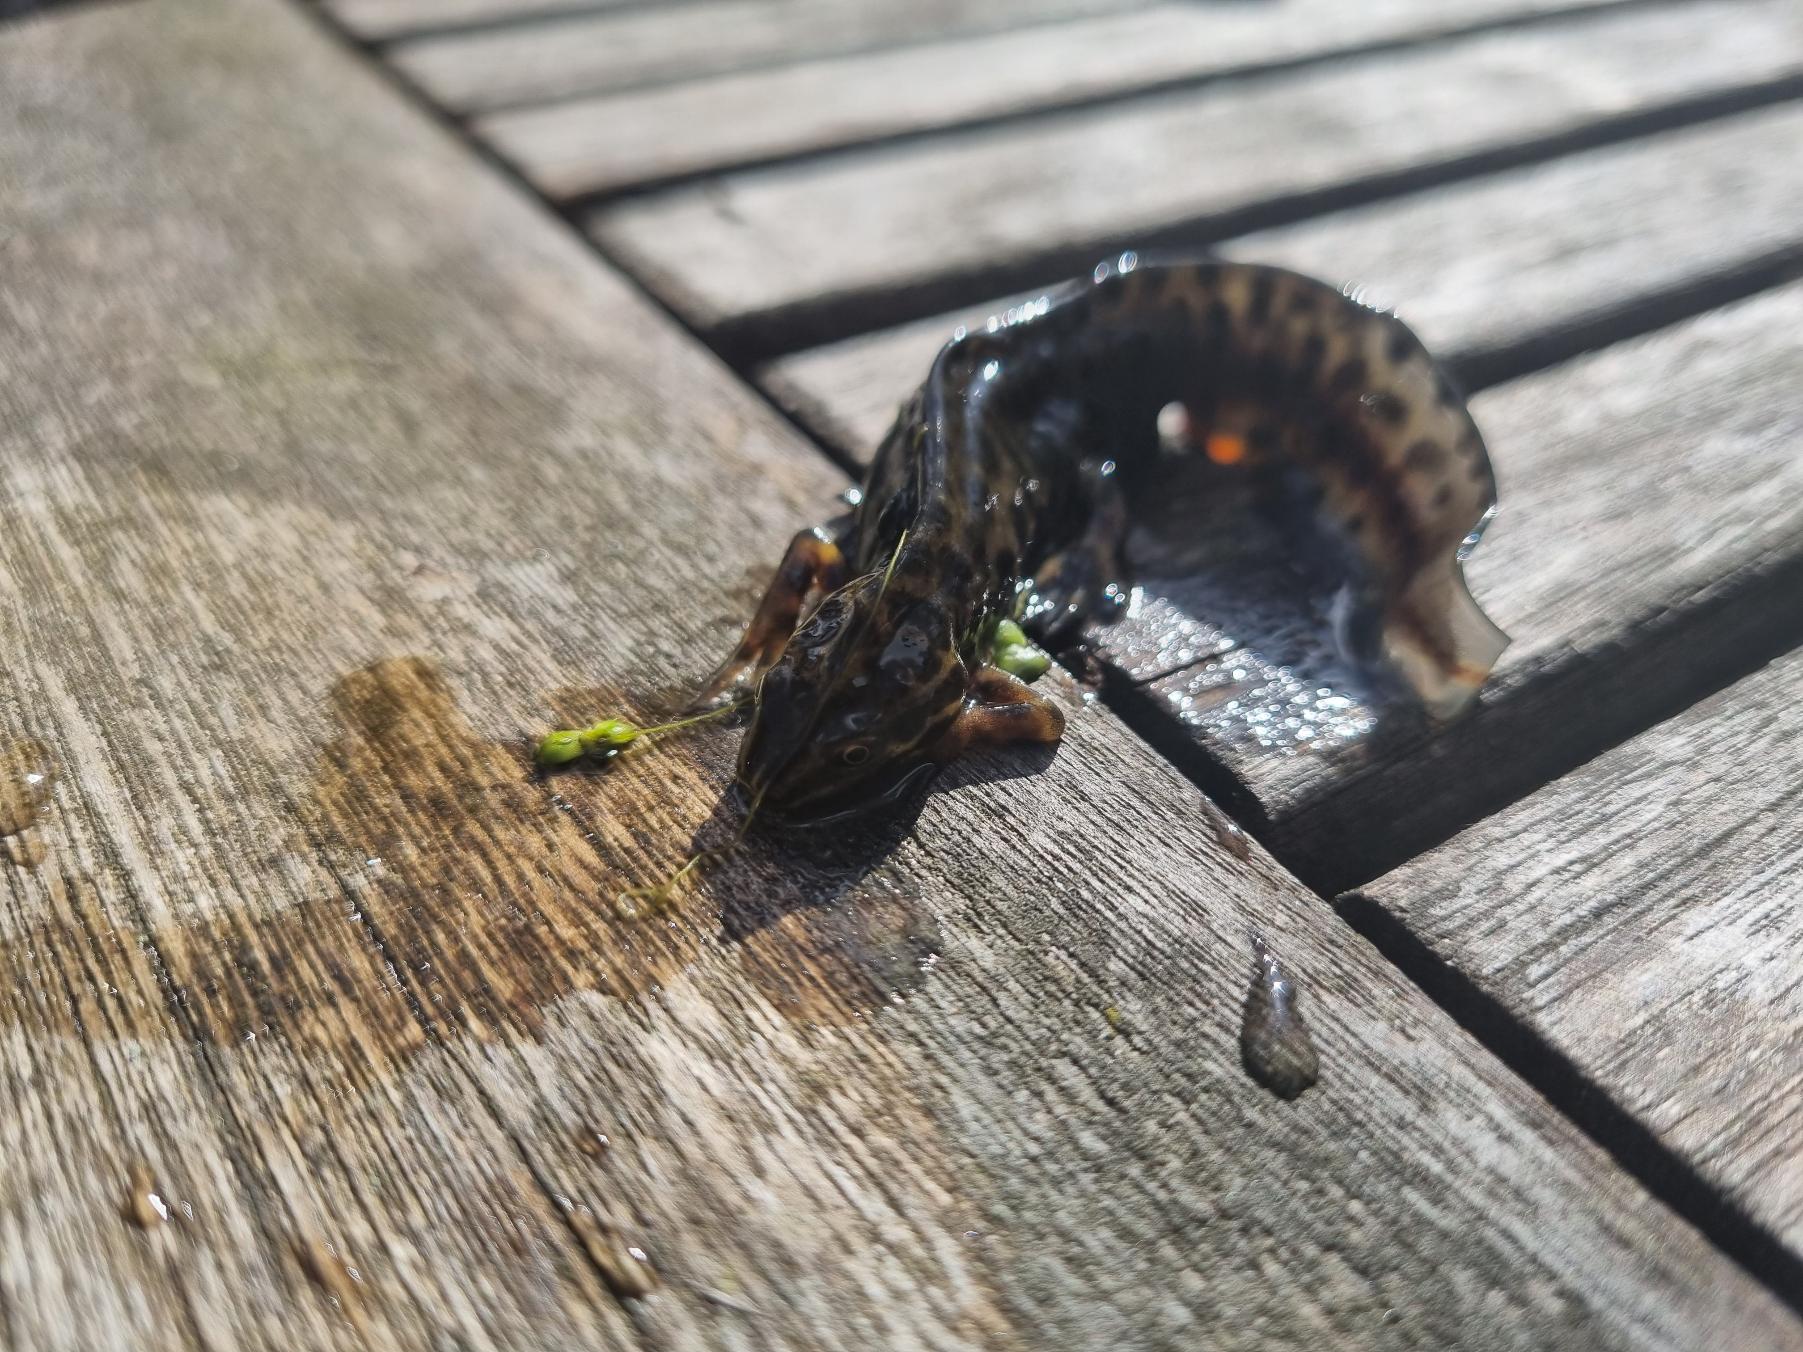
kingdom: Animalia
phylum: Chordata
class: Amphibia
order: Caudata
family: Salamandridae
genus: Lissotriton
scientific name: Lissotriton vulgaris
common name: Lille vandsalamander
